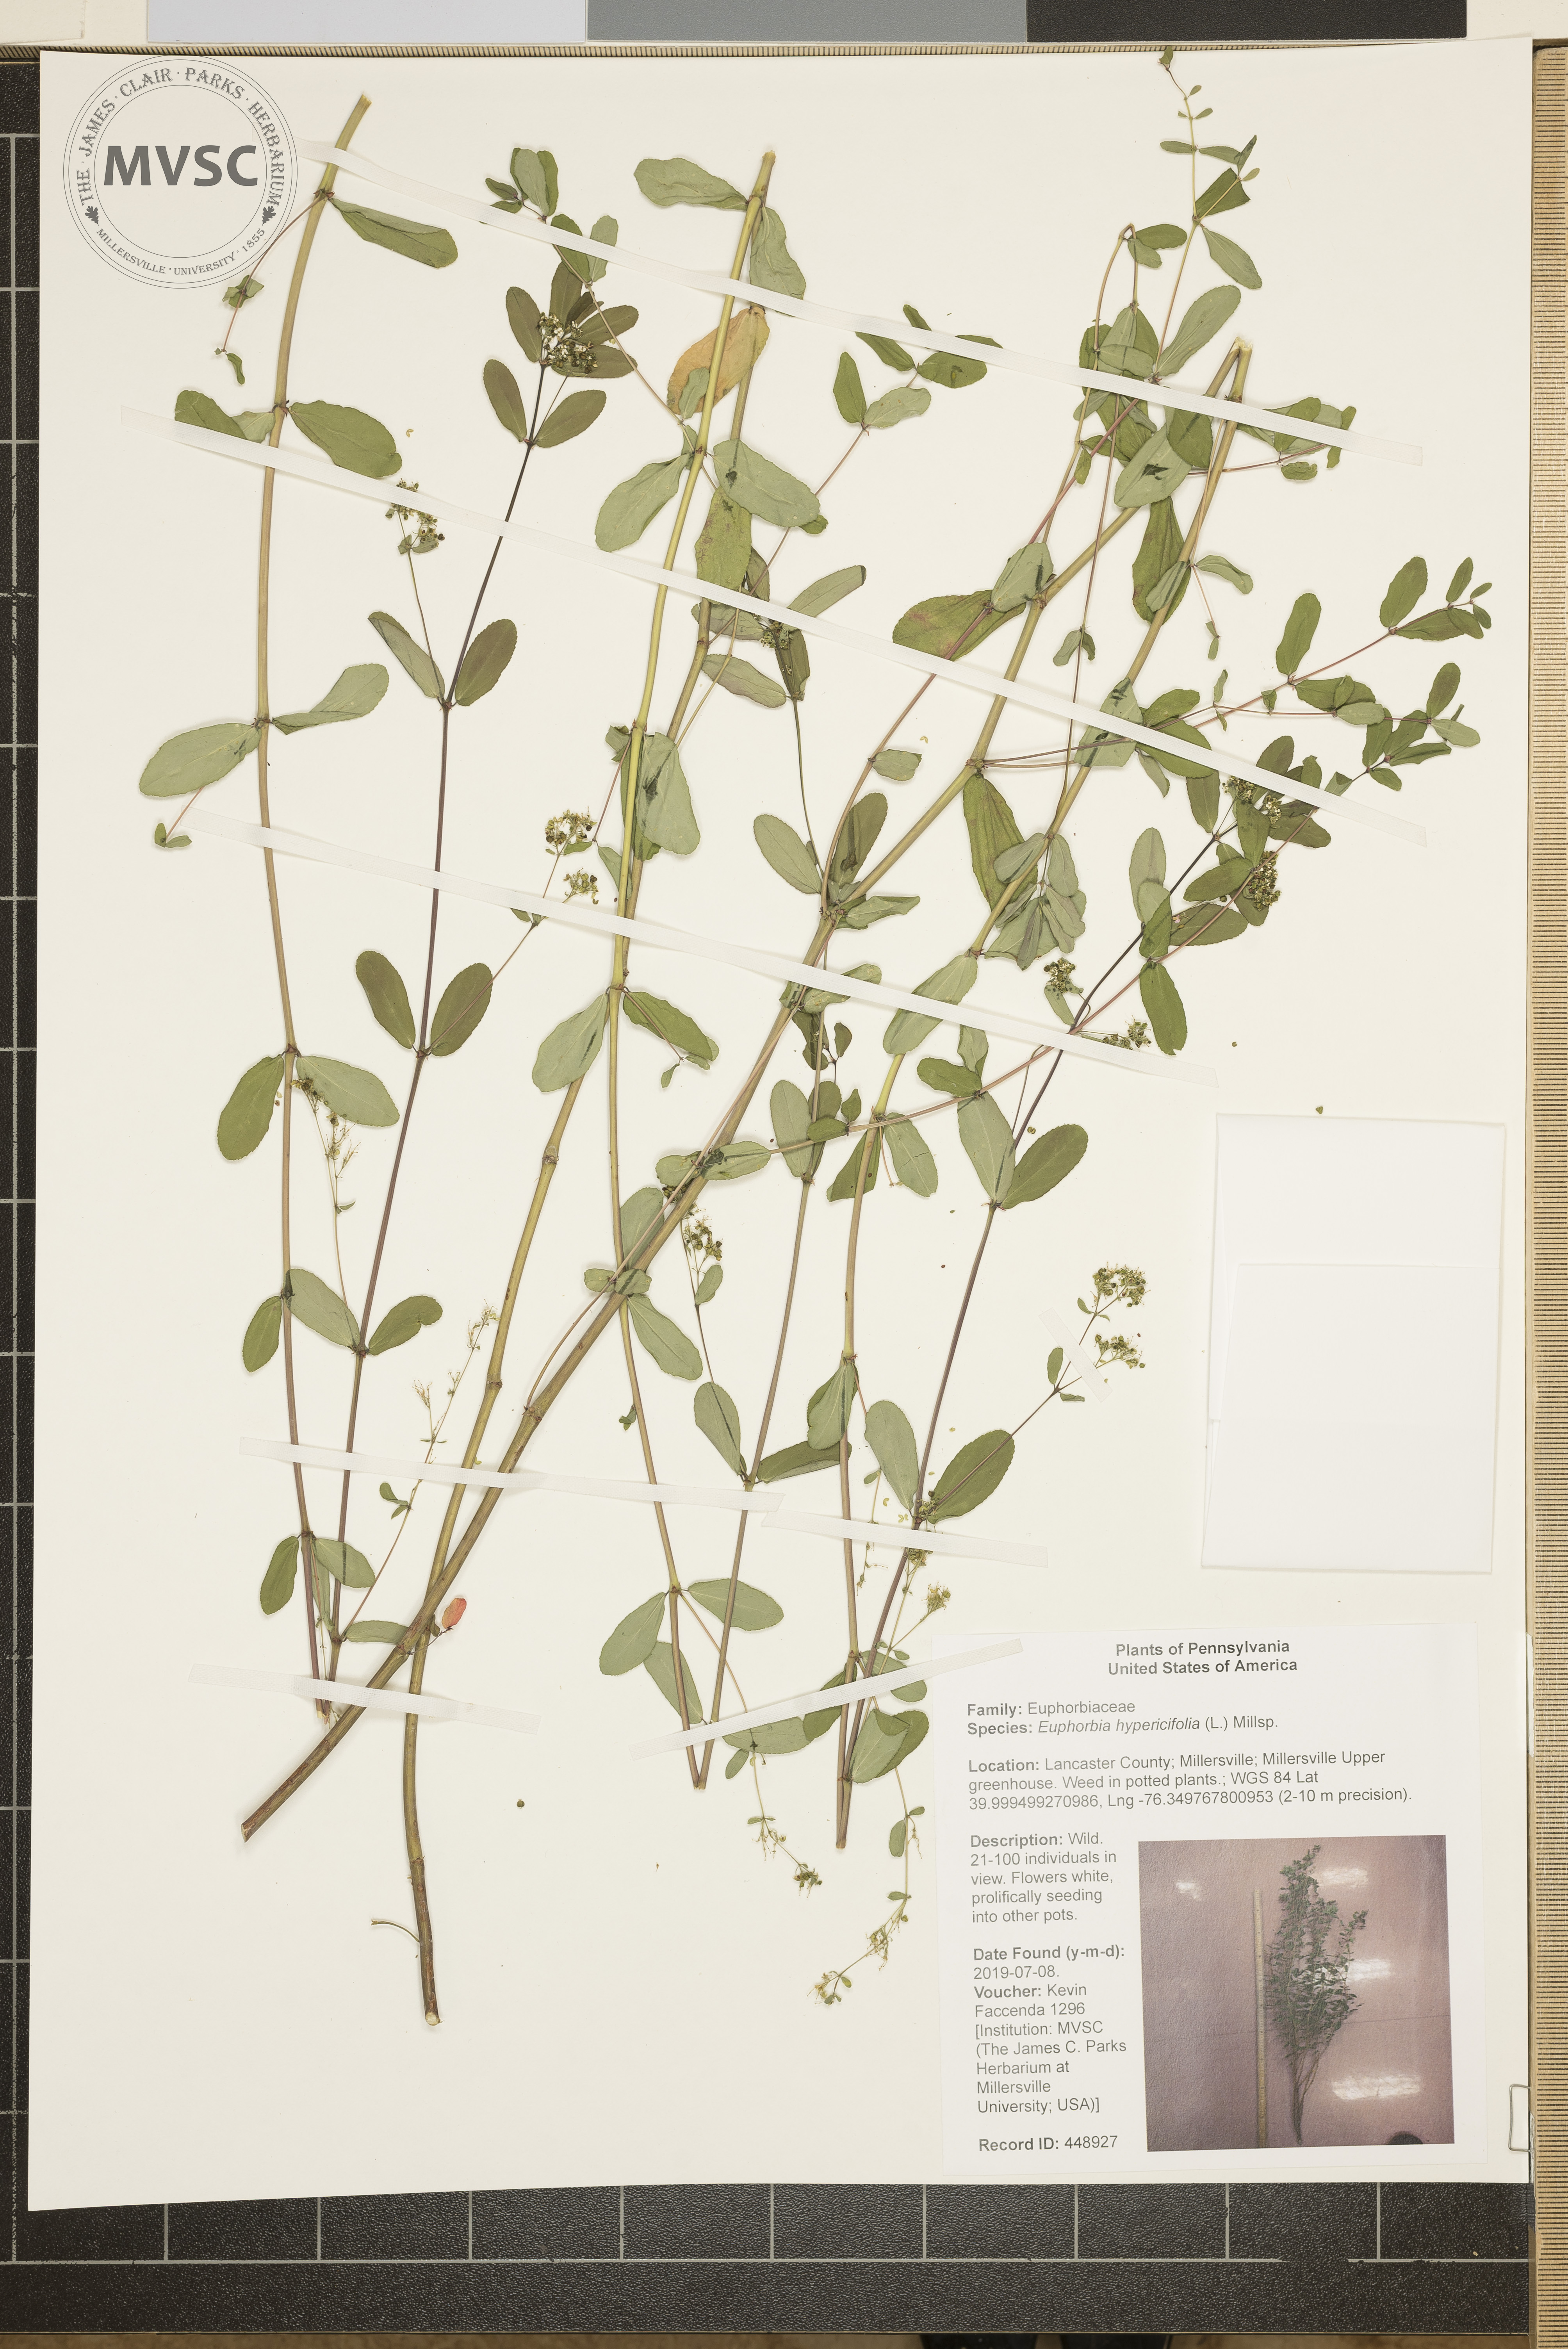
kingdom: Plantae
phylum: Tracheophyta
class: Magnoliopsida
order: Malpighiales
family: Euphorbiaceae
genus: Euphorbia
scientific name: Euphorbia hypericifolia
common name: Graceful sandmat
